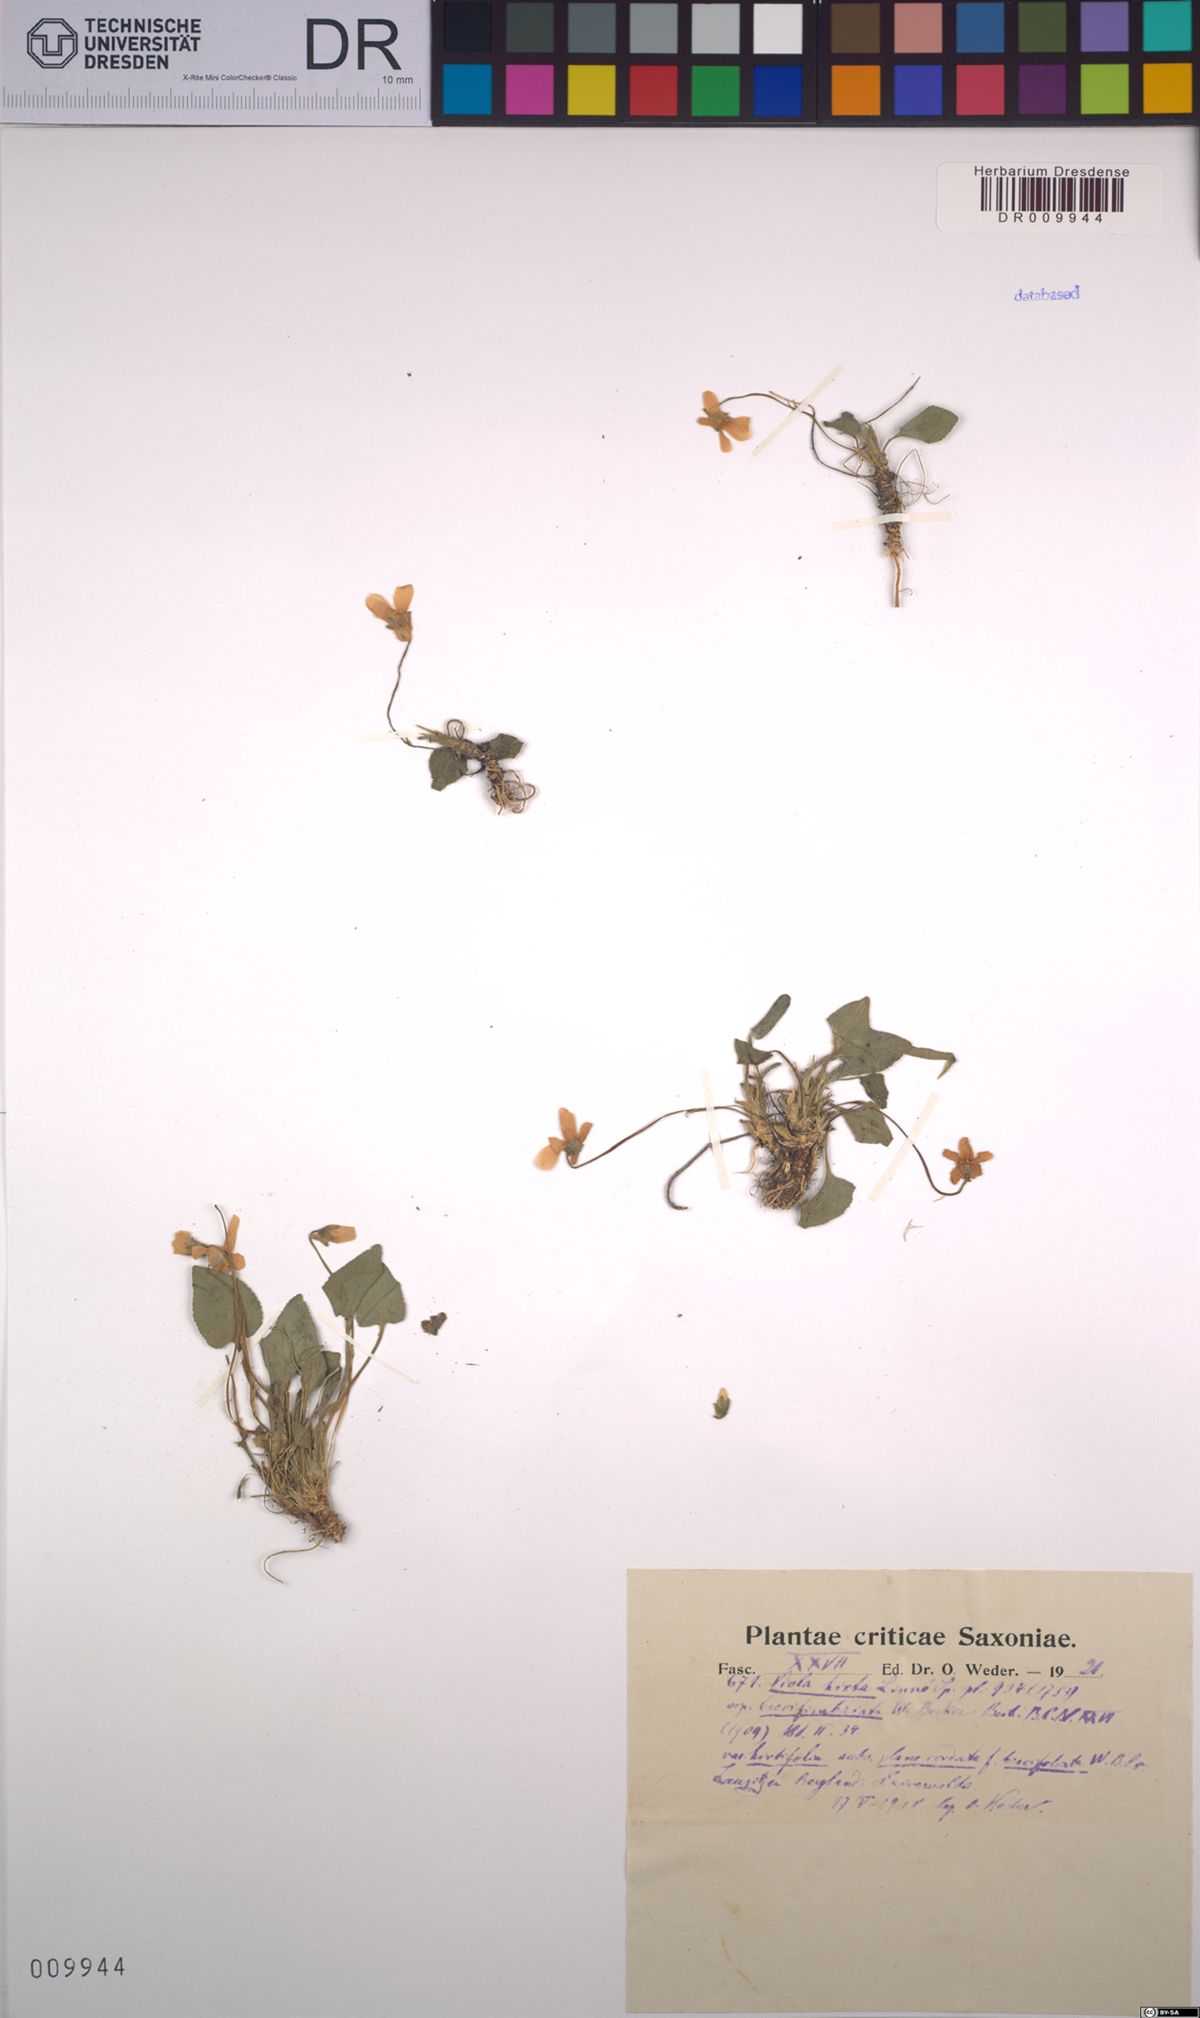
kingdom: Plantae
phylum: Tracheophyta
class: Magnoliopsida
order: Malpighiales
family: Violaceae
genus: Viola
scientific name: Viola hirta
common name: Hairy violet
